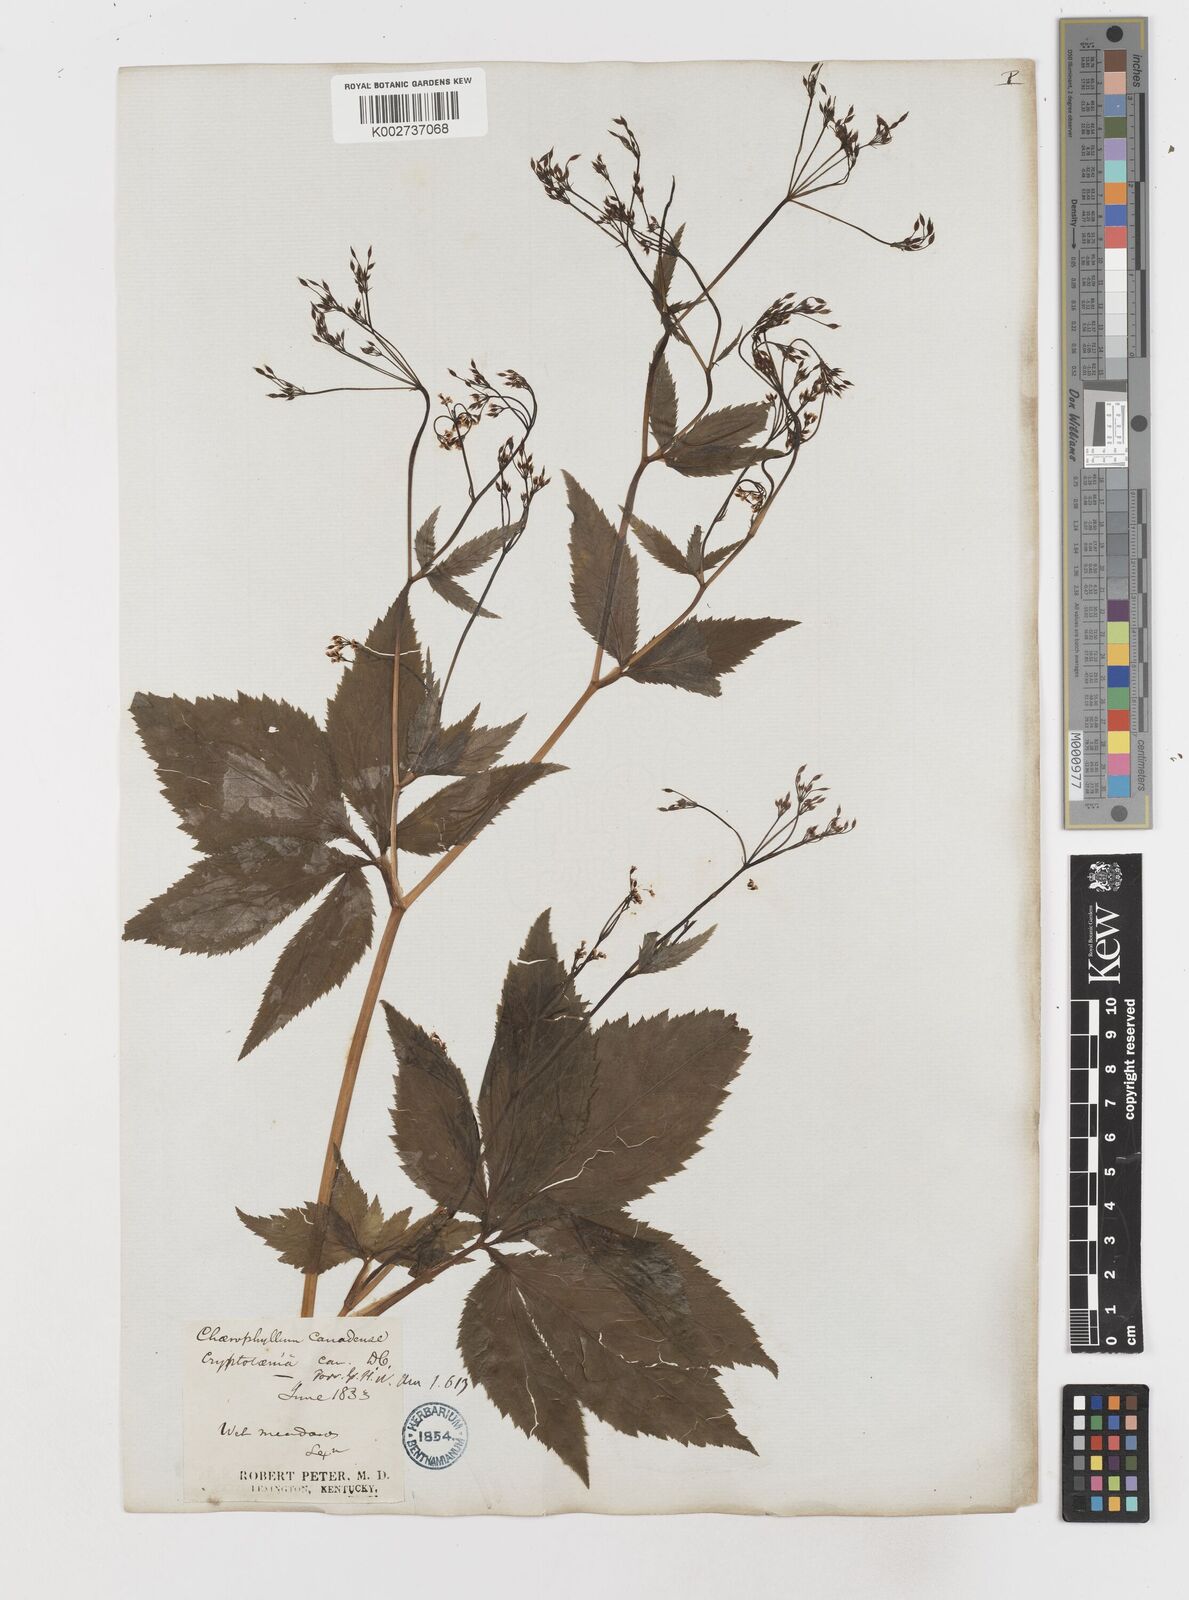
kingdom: Plantae
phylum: Tracheophyta
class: Magnoliopsida
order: Apiales
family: Apiaceae
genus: Cryptotaenia
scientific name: Cryptotaenia canadensis
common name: Honewort
